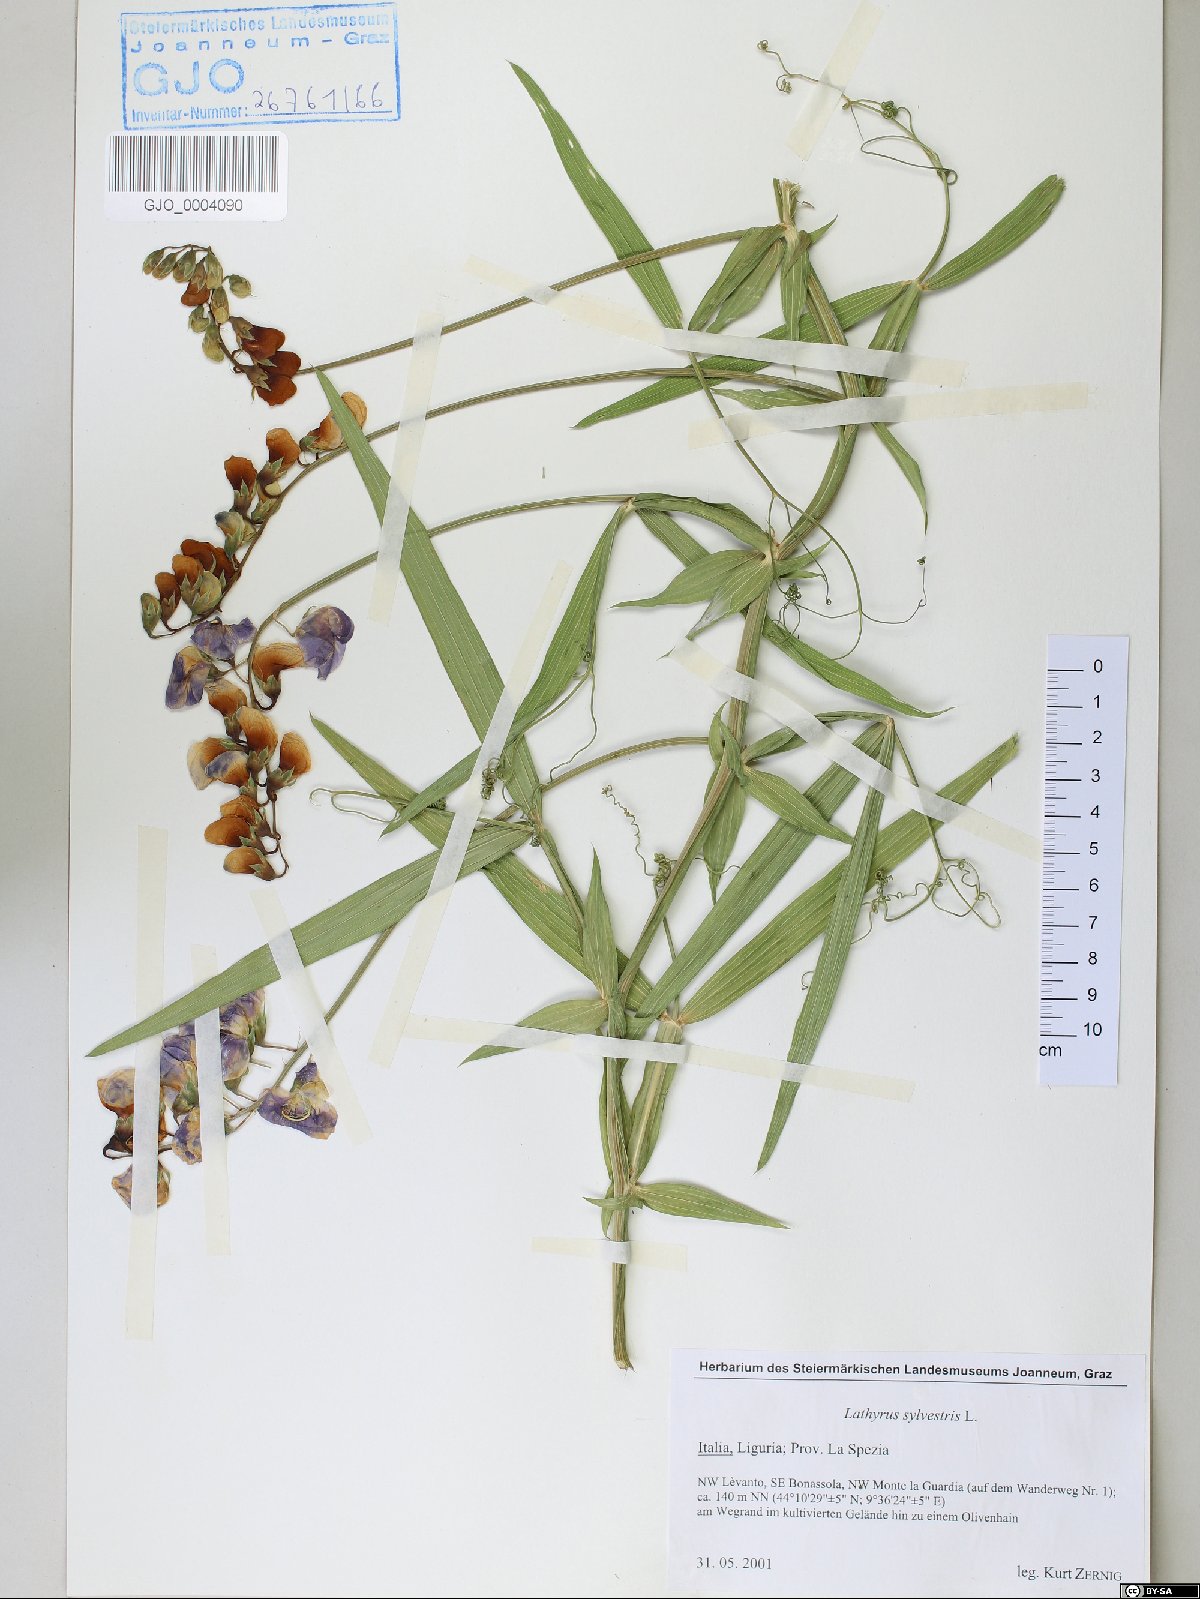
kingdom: Plantae
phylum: Tracheophyta
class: Magnoliopsida
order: Fabales
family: Fabaceae
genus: Lathyrus
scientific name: Lathyrus sylvestris
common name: Flat pea
